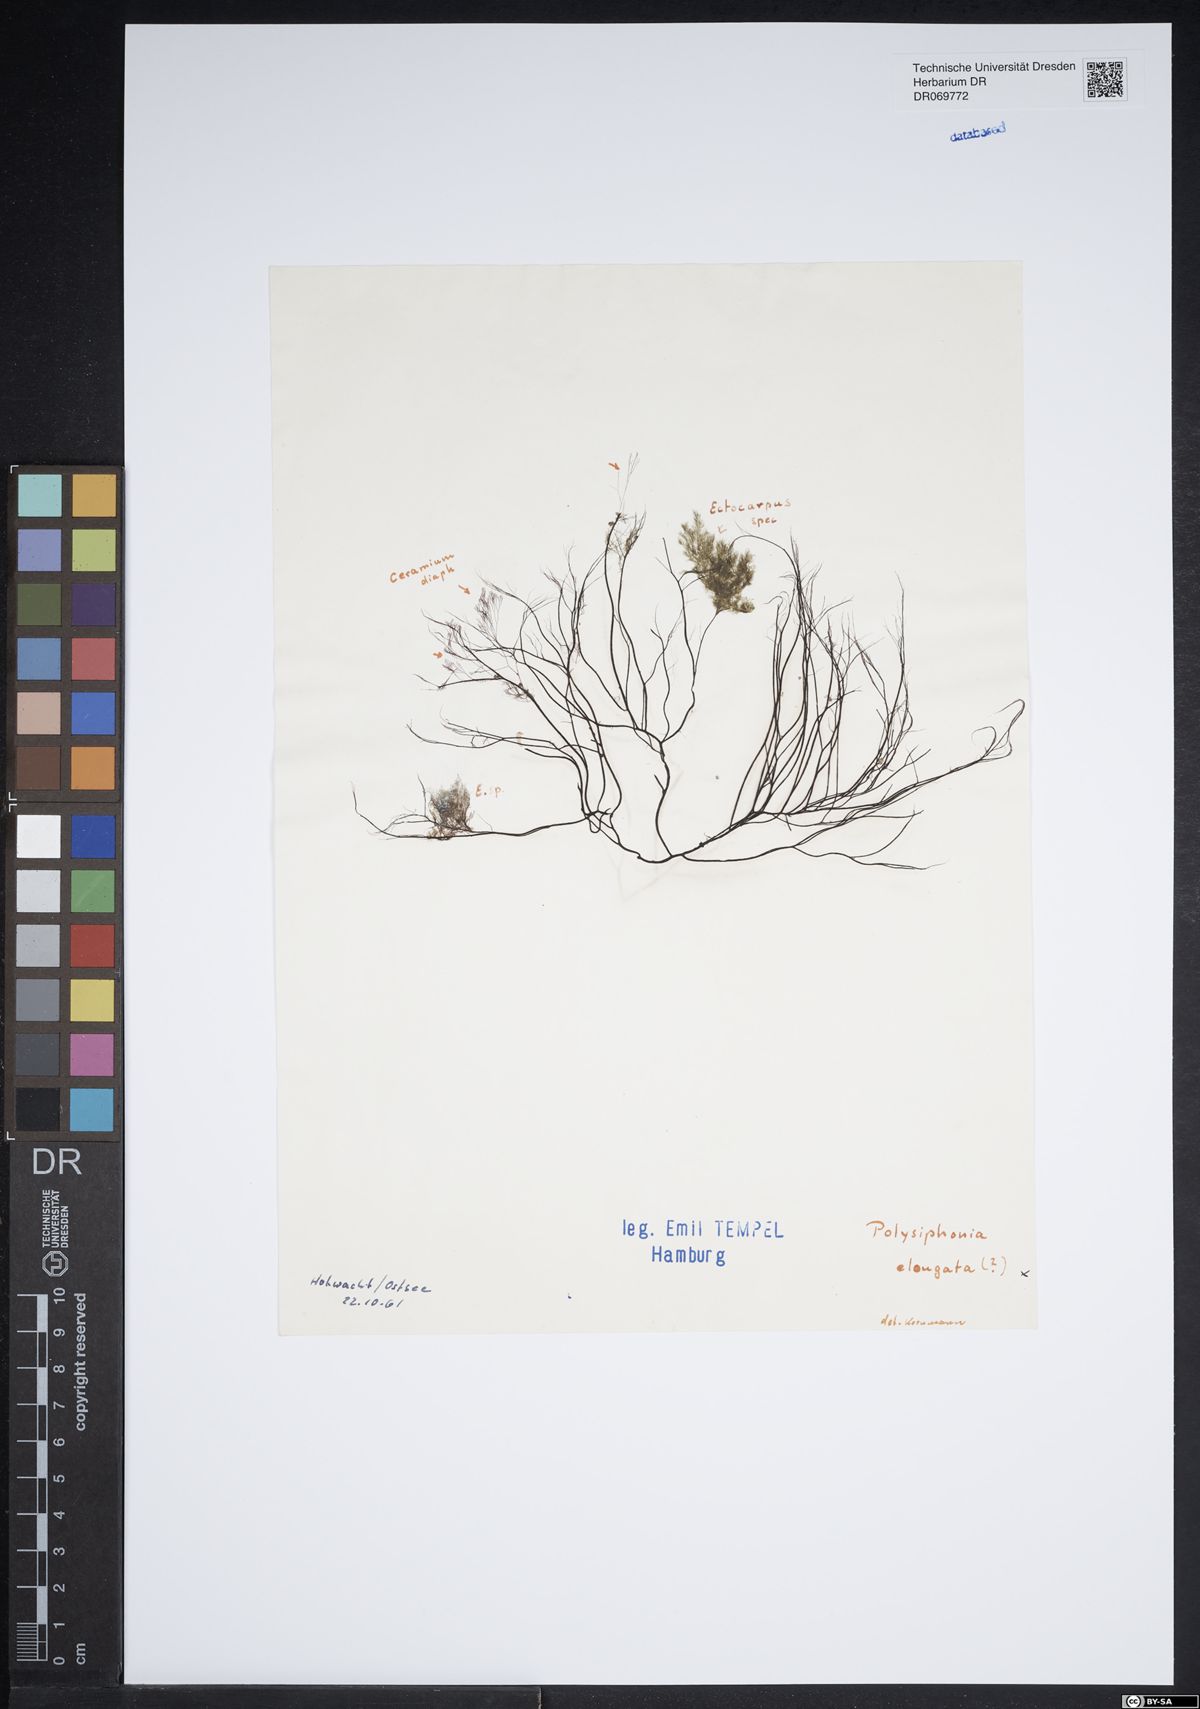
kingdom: Plantae
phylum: Rhodophyta
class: Florideophyceae
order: Ceramiales
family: Rhodomelaceae
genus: Vertebrata
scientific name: Vertebrata spec
